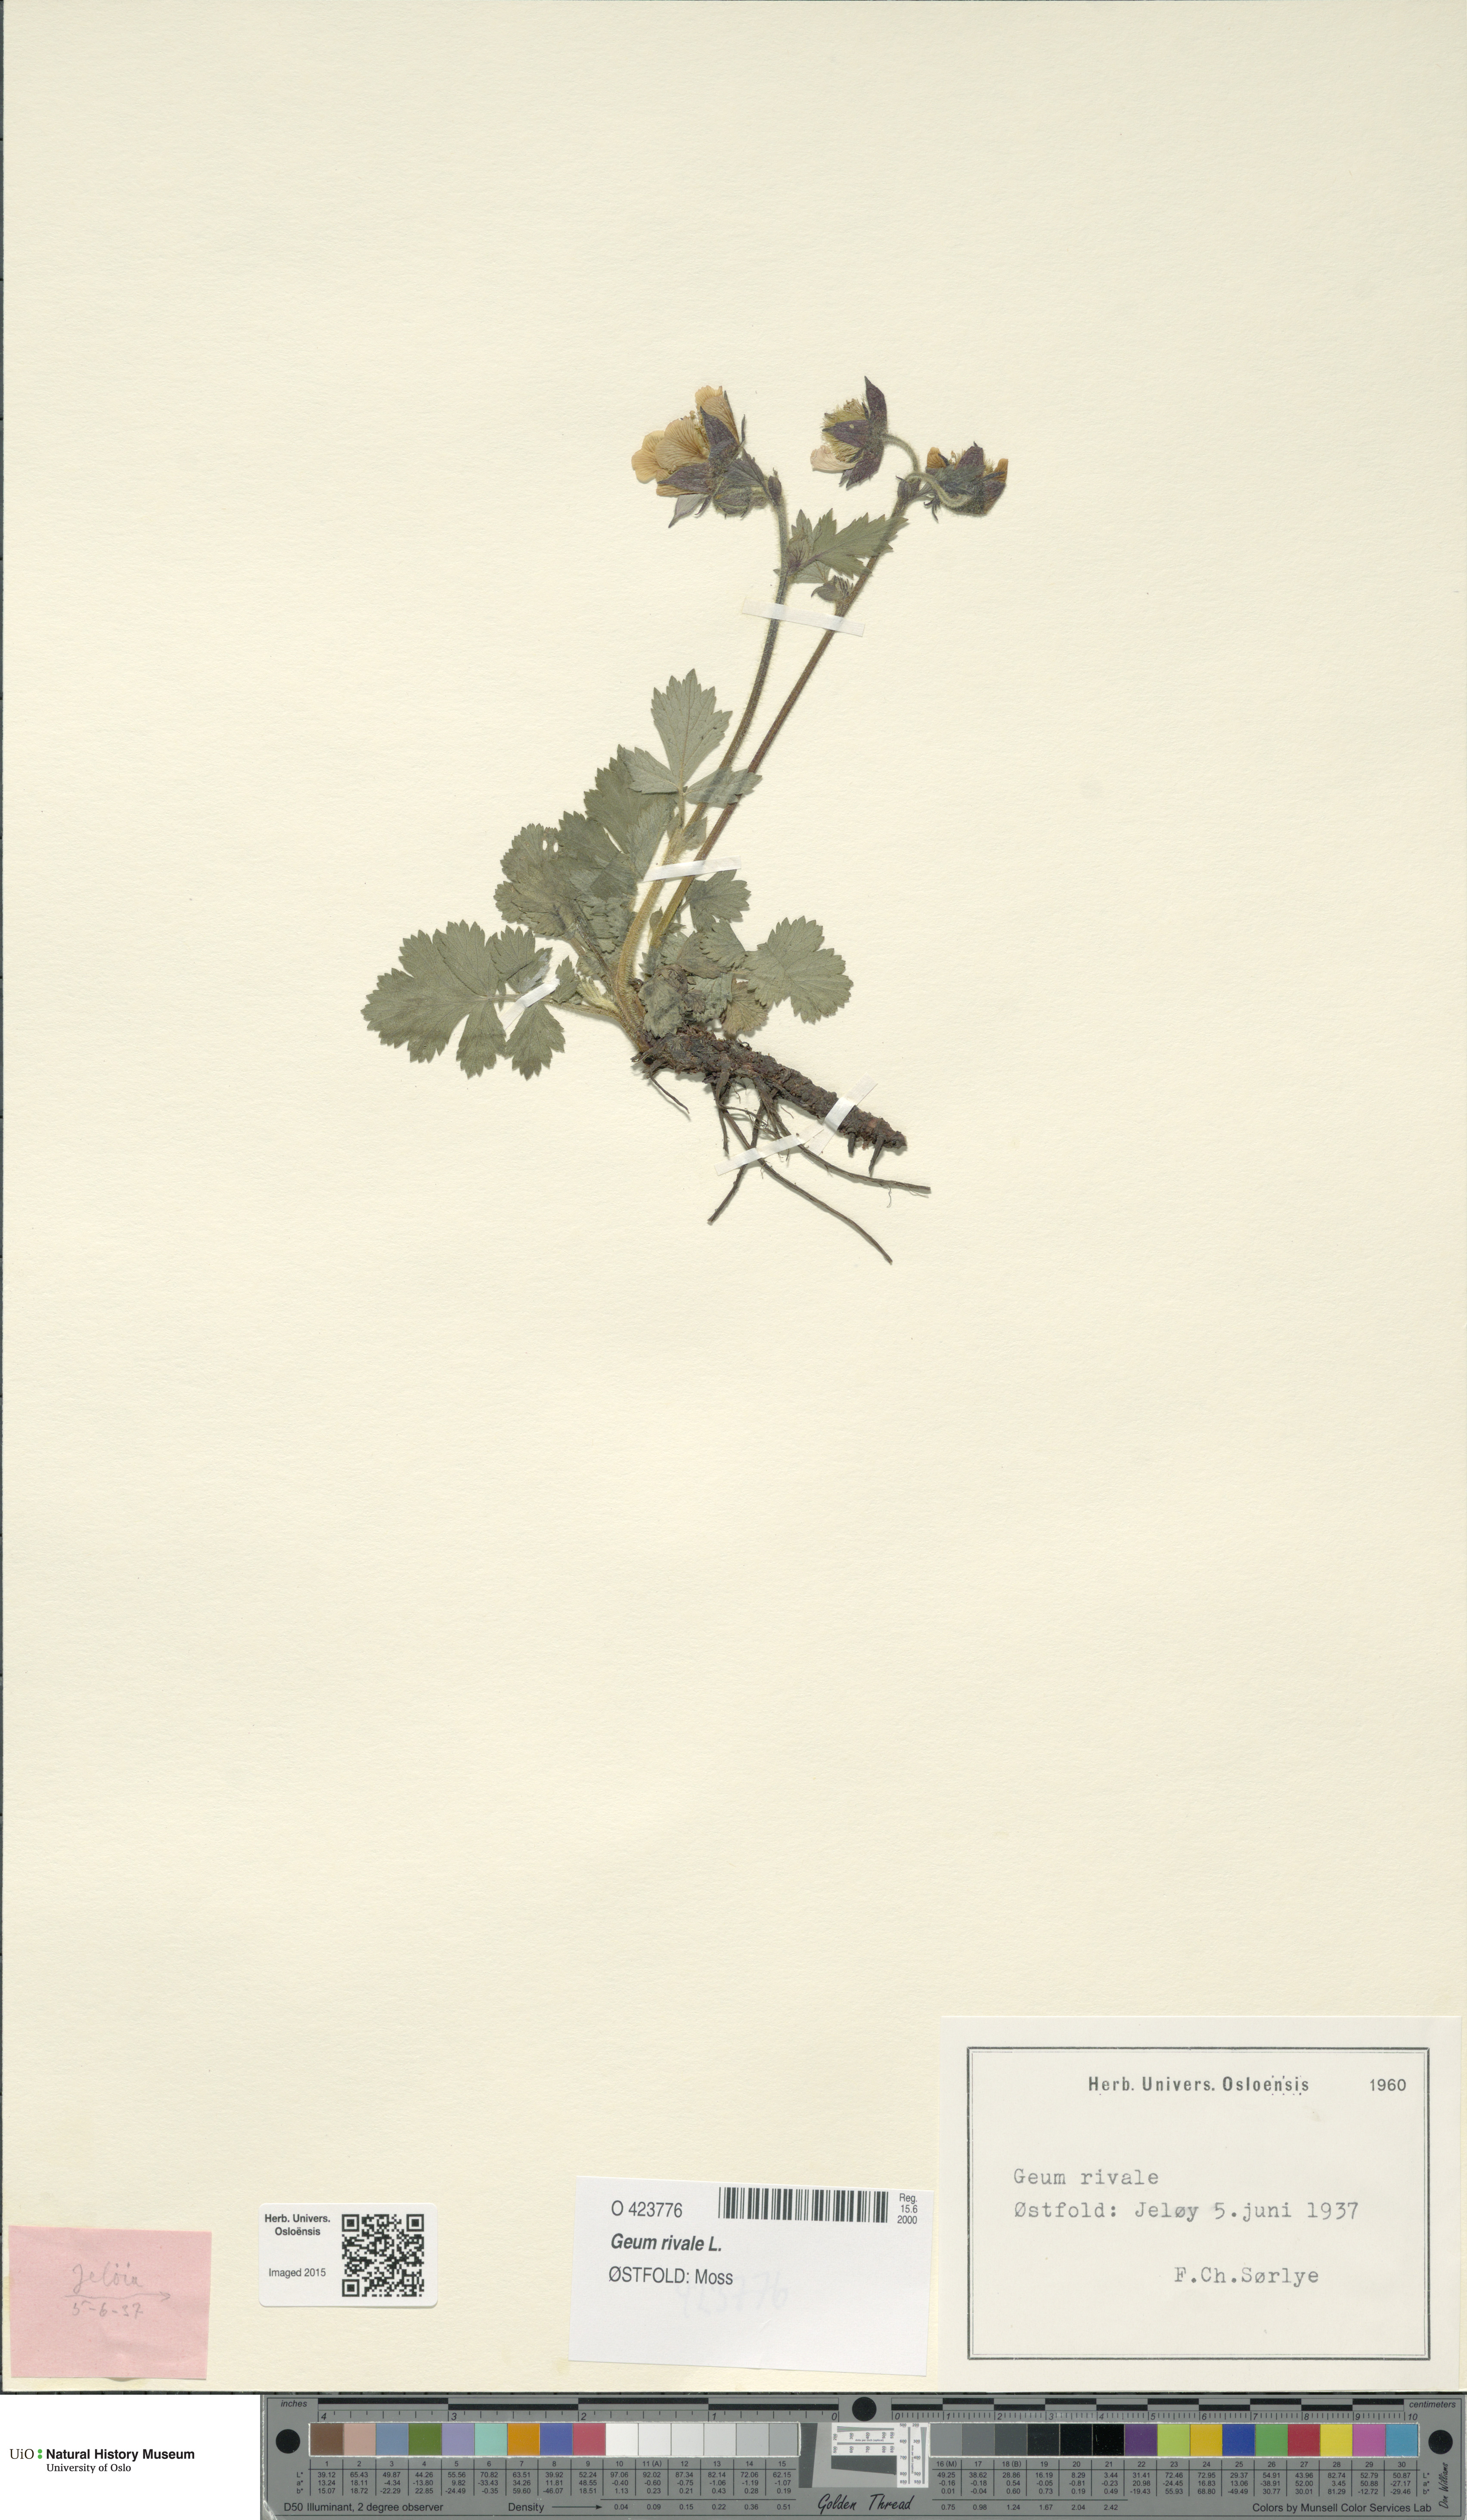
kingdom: Plantae
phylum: Tracheophyta
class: Magnoliopsida
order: Rosales
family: Rosaceae
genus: Geum
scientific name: Geum rivale
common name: Water avens
